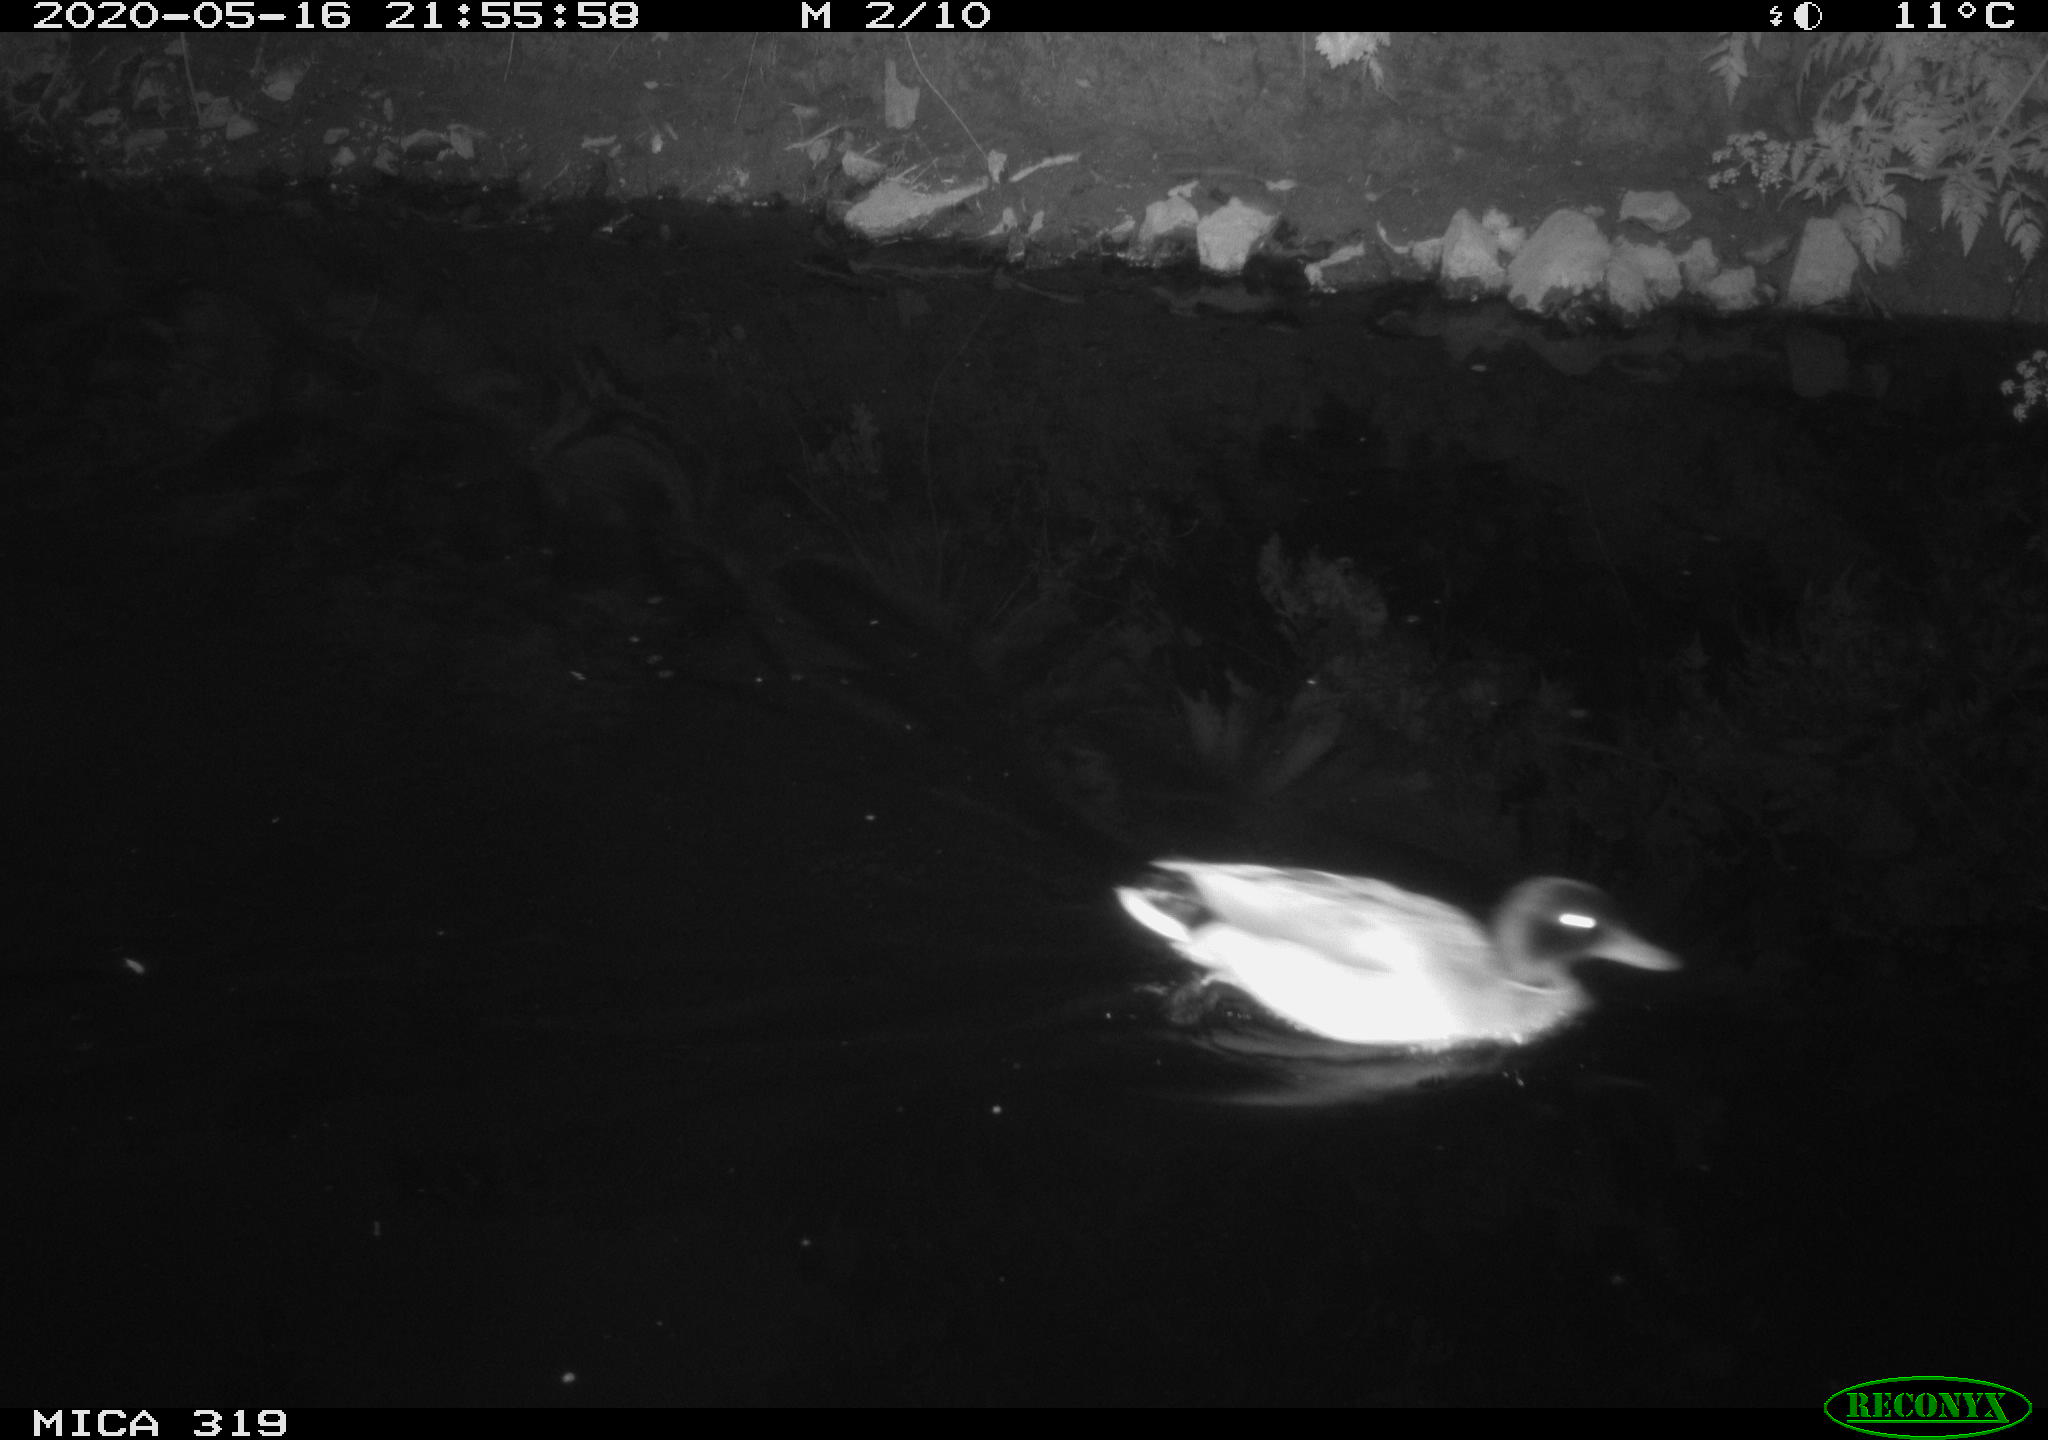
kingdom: Animalia
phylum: Chordata
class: Aves
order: Anseriformes
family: Anatidae
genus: Anas
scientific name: Anas platyrhynchos
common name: Mallard
